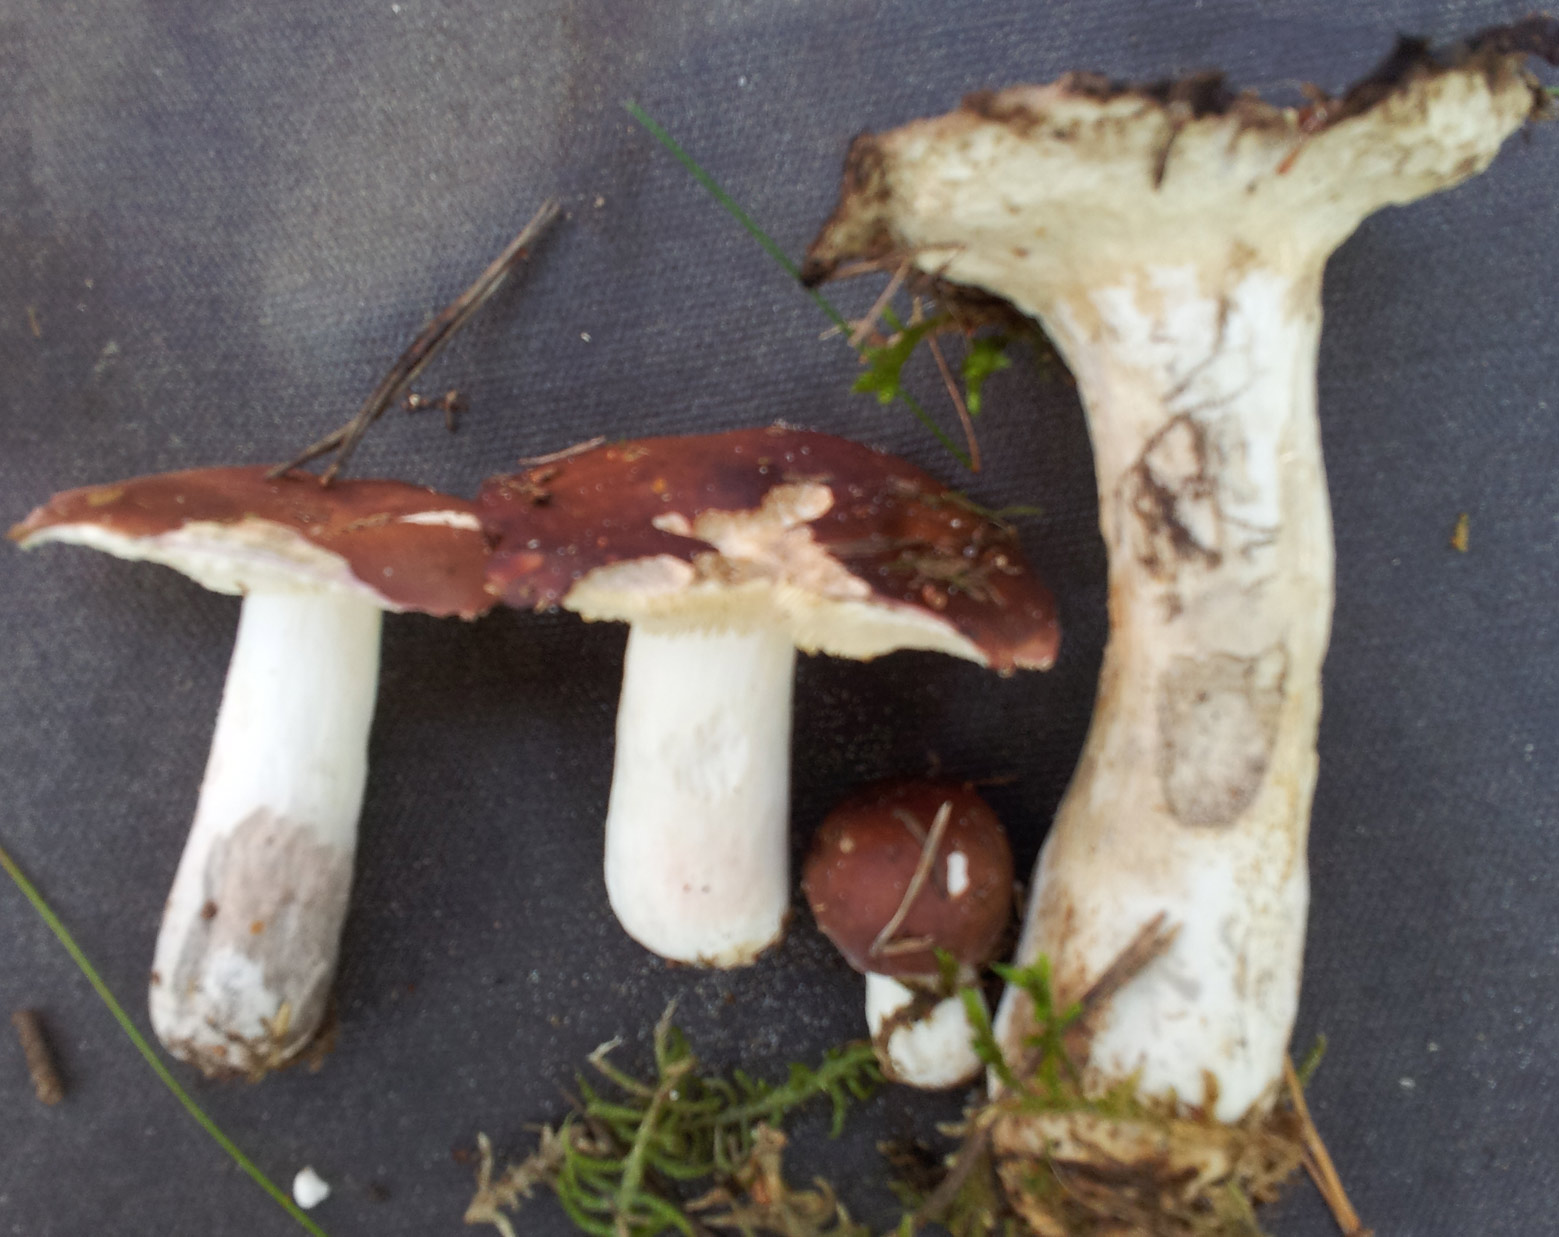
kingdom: Fungi
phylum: Basidiomycota
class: Agaricomycetes
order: Russulales
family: Russulaceae
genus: Russula
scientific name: Russula vinosa
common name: vinrød skørhat
